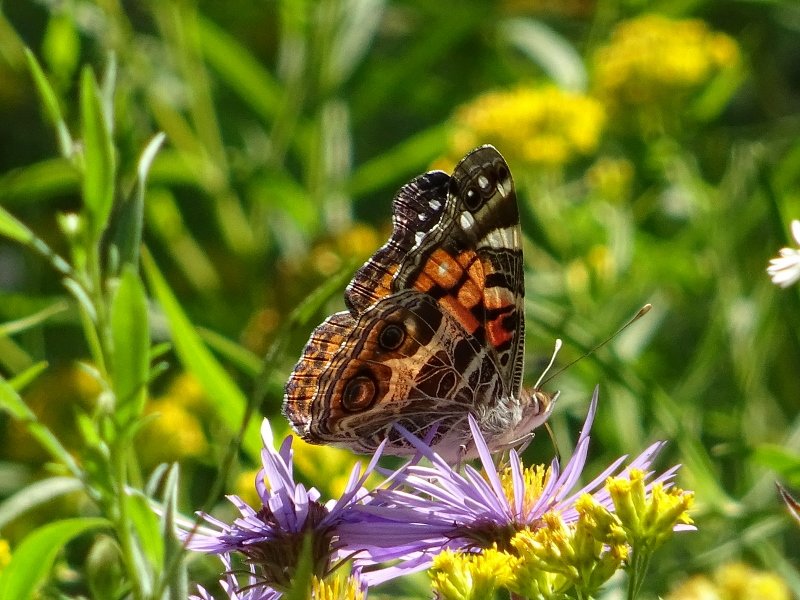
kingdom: Animalia
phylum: Arthropoda
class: Insecta
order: Lepidoptera
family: Nymphalidae
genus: Vanessa
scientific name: Vanessa virginiensis
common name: American Lady
